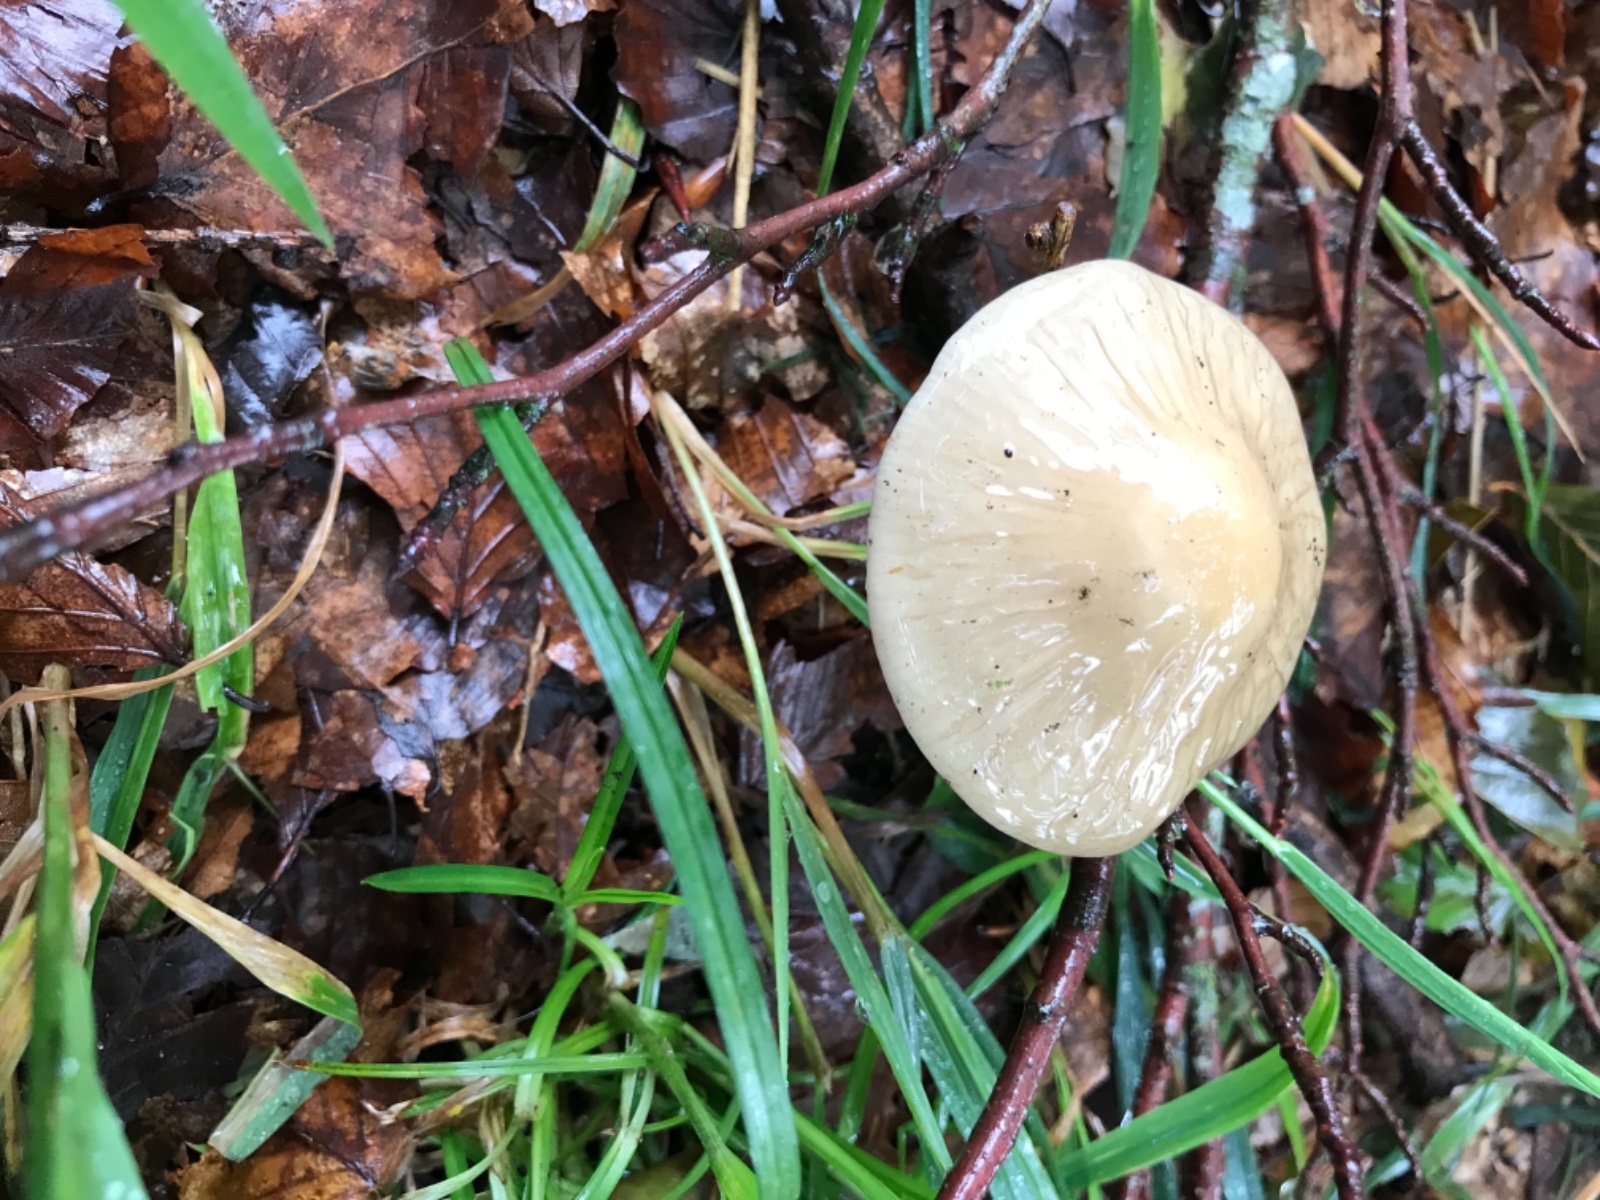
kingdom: Fungi
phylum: Basidiomycota
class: Agaricomycetes
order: Agaricales
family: Physalacriaceae
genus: Hymenopellis
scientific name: Hymenopellis radicata
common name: almindelig pælerodshat
